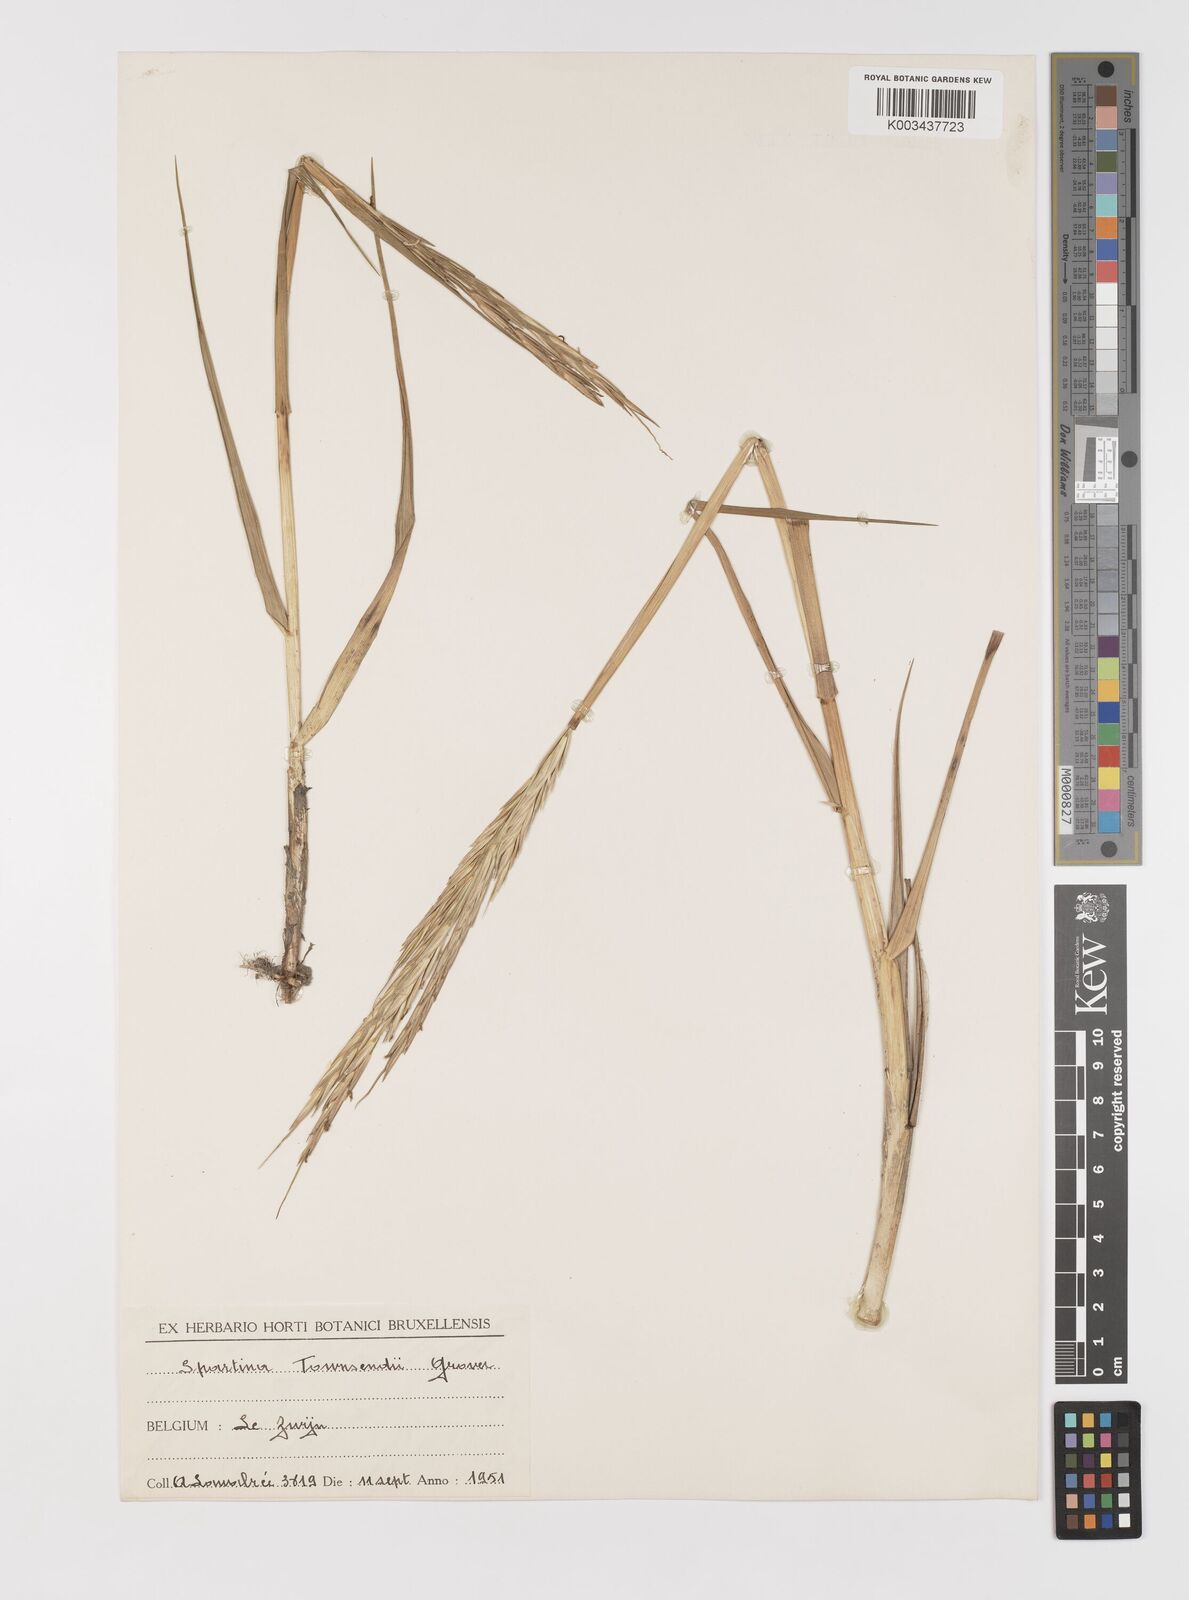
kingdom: Plantae
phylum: Tracheophyta
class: Liliopsida
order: Poales
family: Poaceae
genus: Sporobolus
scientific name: Sporobolus anglicus
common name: English cordgrass
